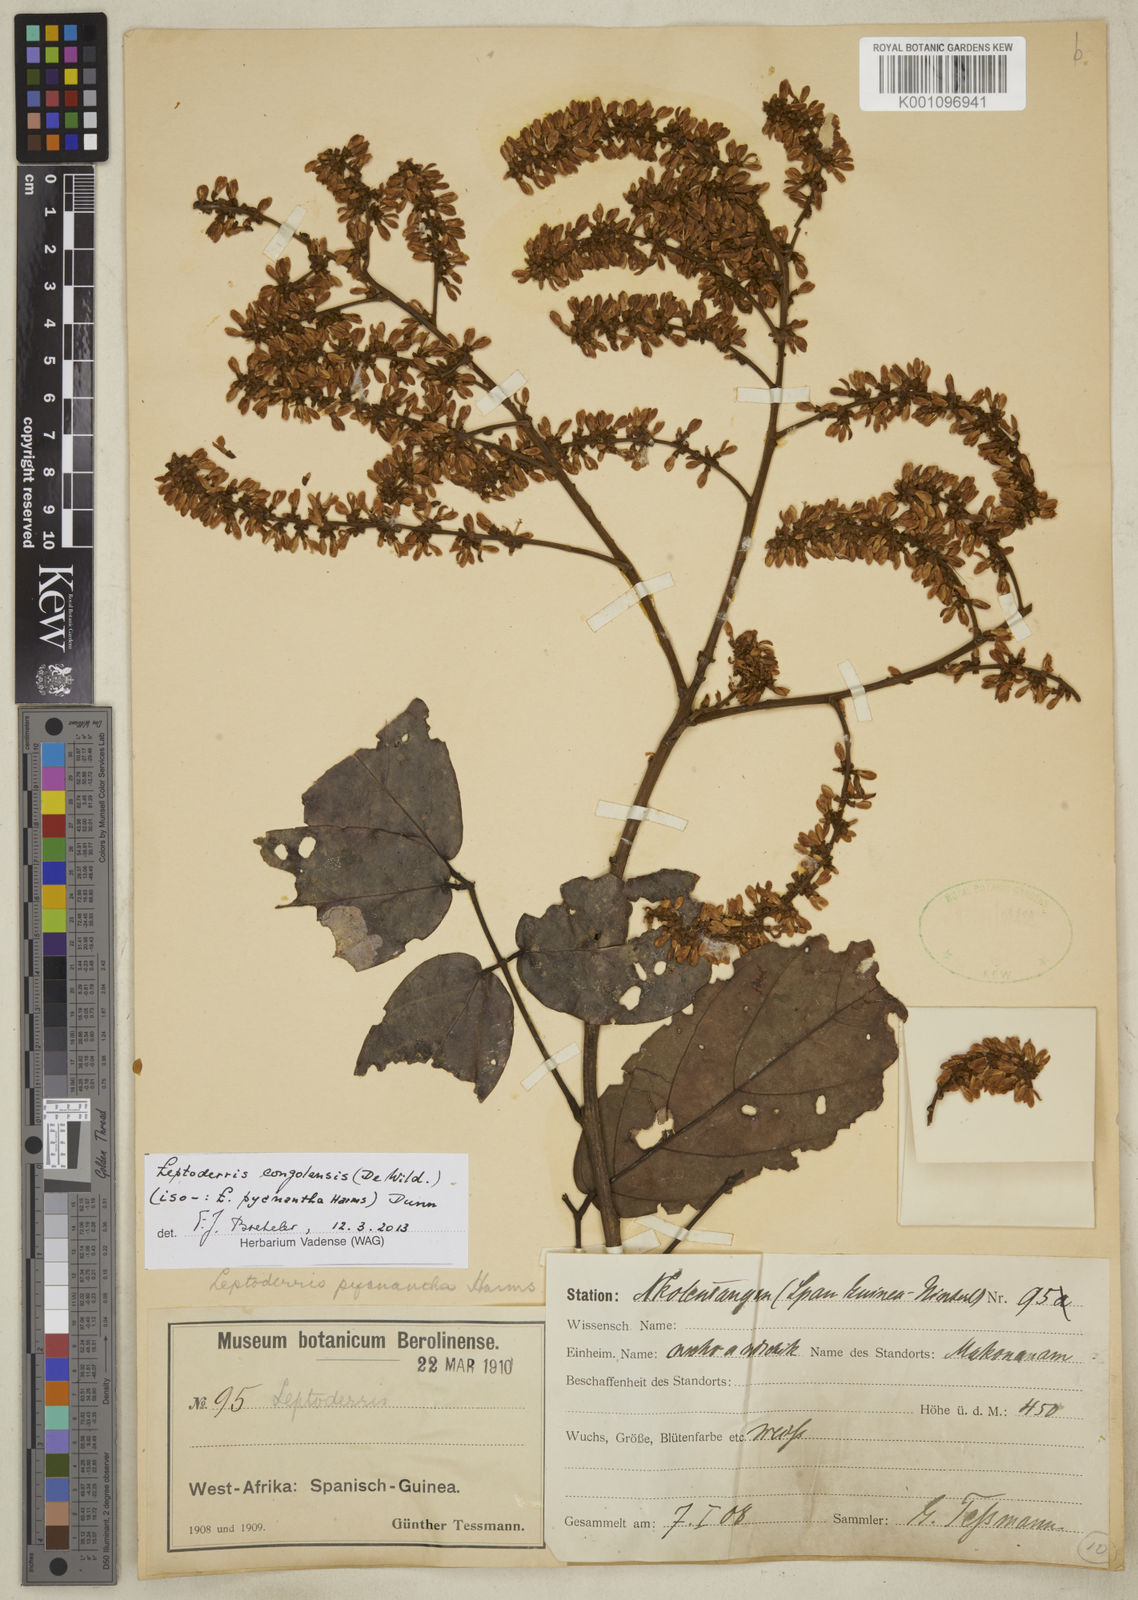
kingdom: Plantae
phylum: Tracheophyta
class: Magnoliopsida
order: Fabales
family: Fabaceae
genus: Leptoderris
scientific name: Leptoderris congolensis
